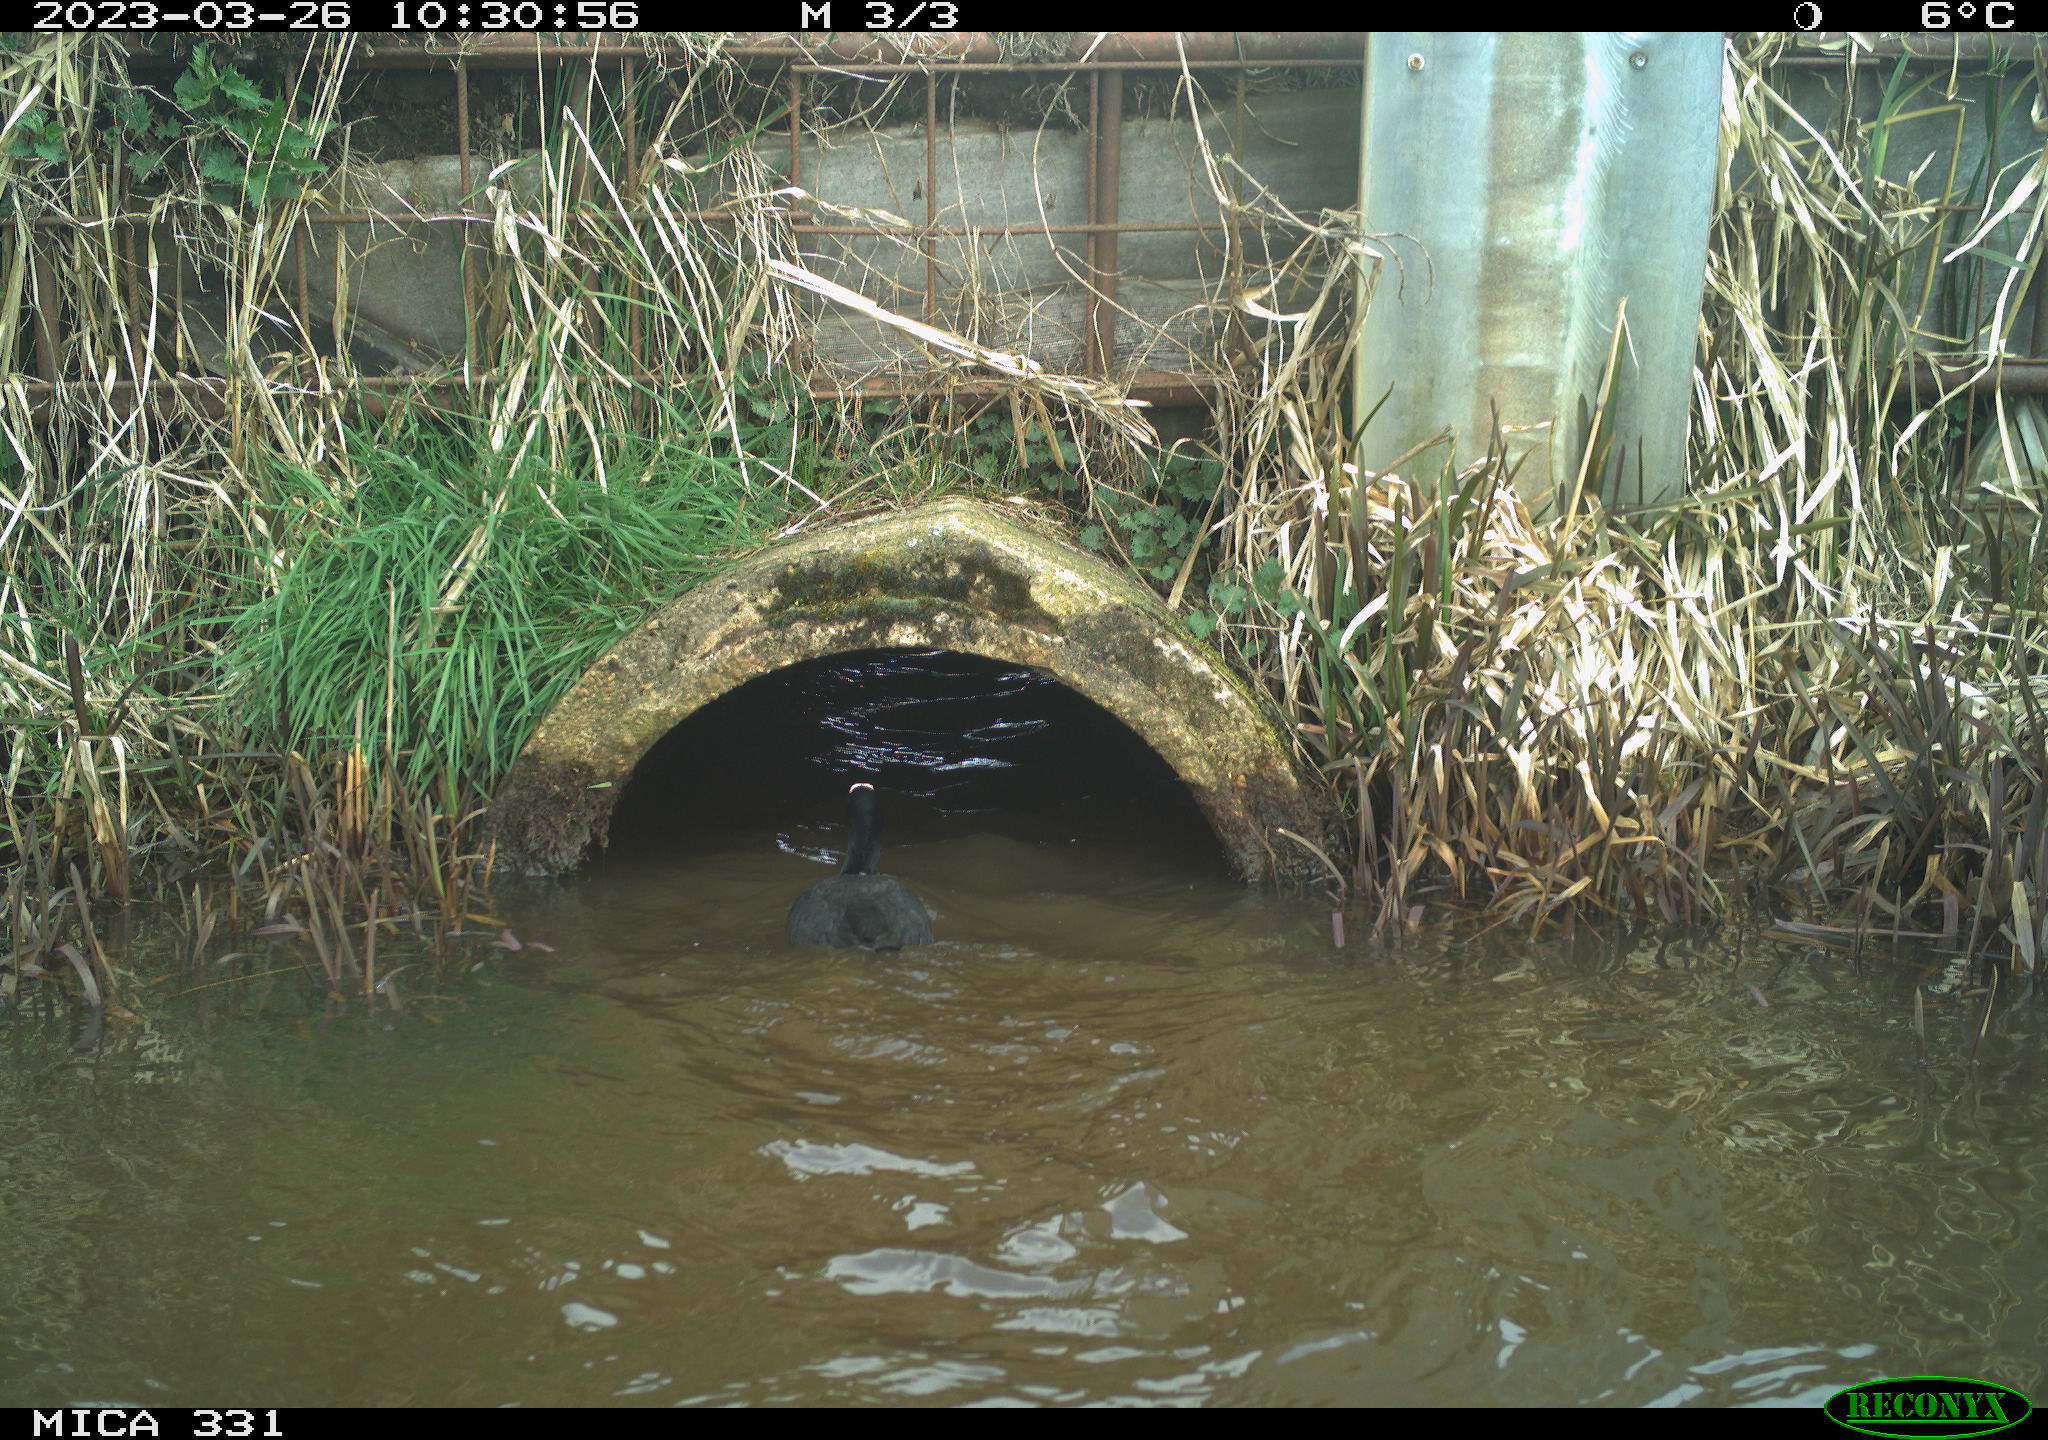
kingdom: Animalia
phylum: Chordata
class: Aves
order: Gruiformes
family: Rallidae
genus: Fulica
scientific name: Fulica atra
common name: Eurasian coot
